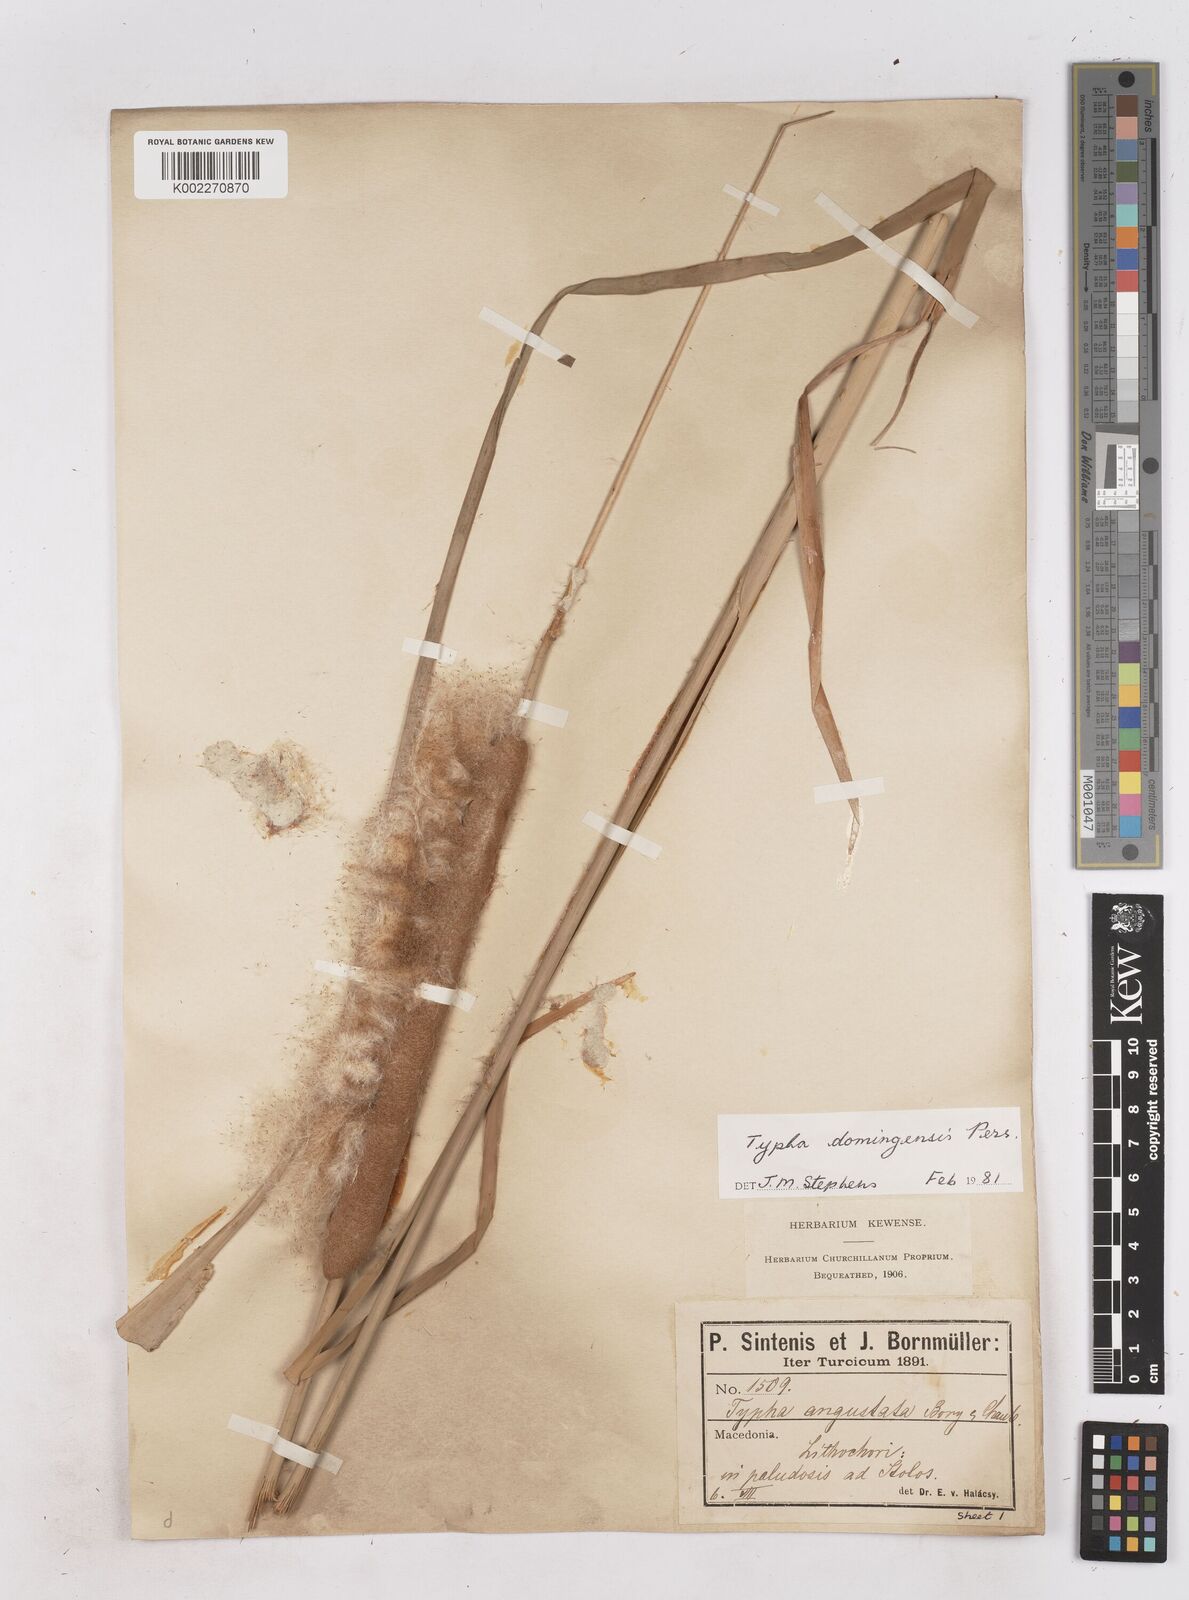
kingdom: Plantae
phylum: Tracheophyta
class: Liliopsida
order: Poales
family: Typhaceae
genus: Typha
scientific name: Typha domingensis
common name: Southern cattail
